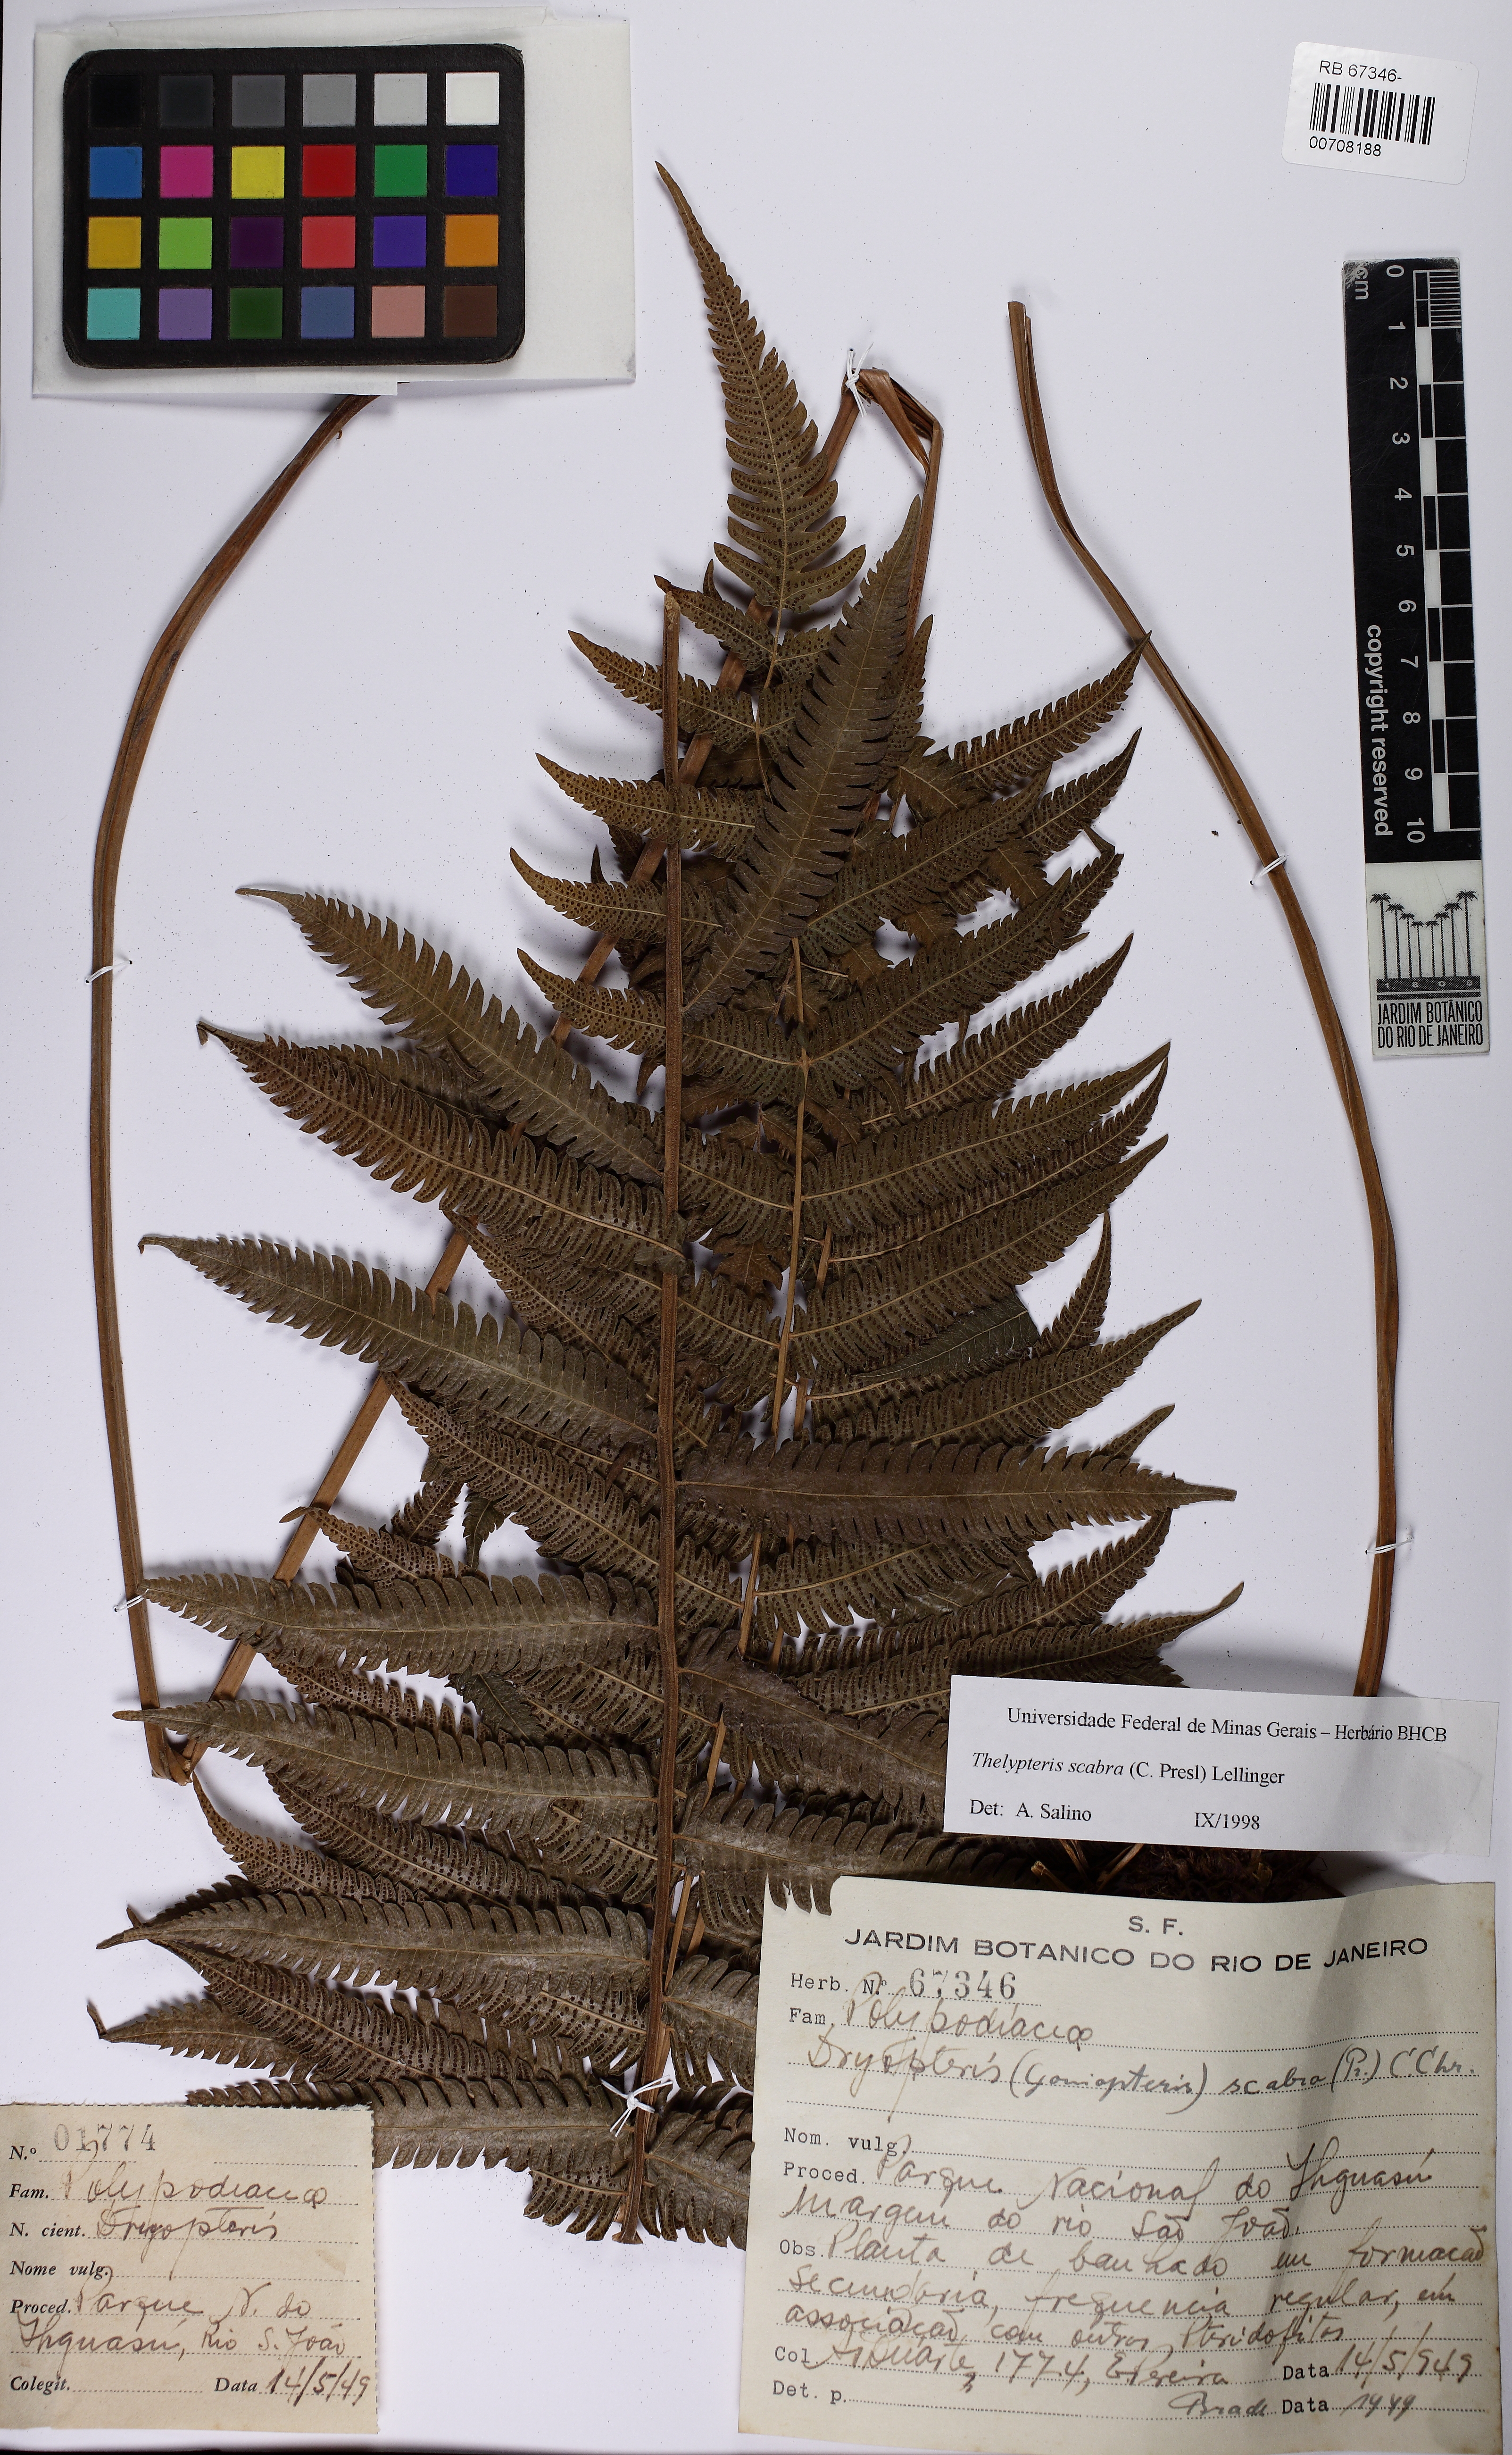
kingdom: Plantae
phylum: Tracheophyta
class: Polypodiopsida
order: Polypodiales
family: Thelypteridaceae
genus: Goniopteris
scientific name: Goniopteris scabra
